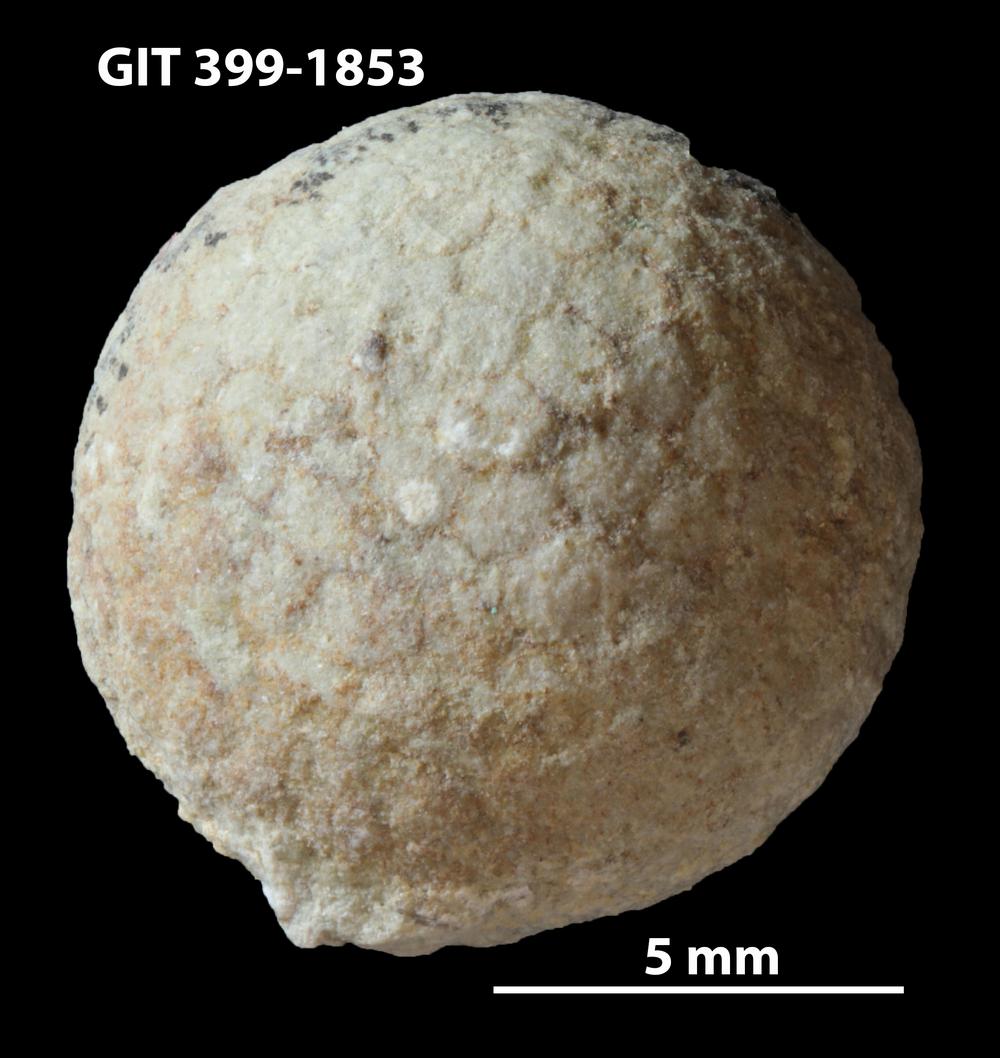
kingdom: Plantae
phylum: Chlorophyta
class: Ulvophyceae
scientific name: Ulvophyceae
